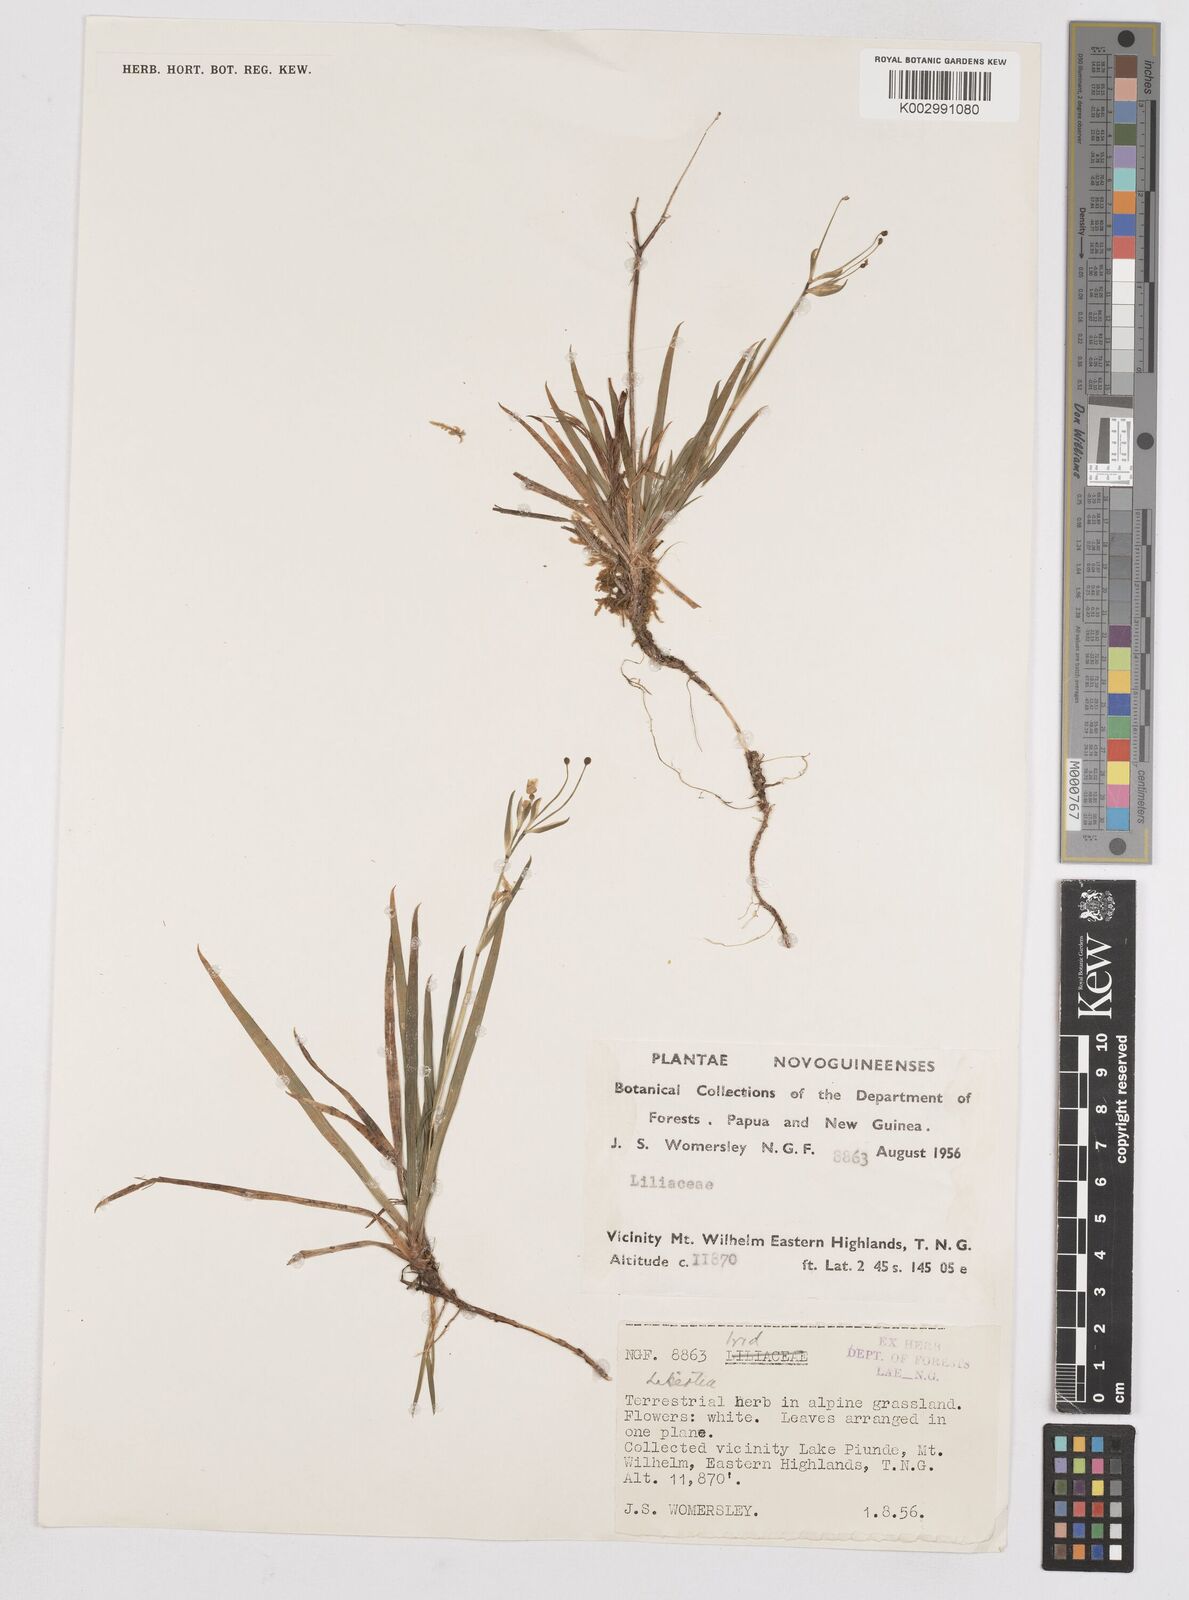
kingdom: Plantae
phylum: Tracheophyta
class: Liliopsida
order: Asparagales
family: Iridaceae
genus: Libertia
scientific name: Libertia
